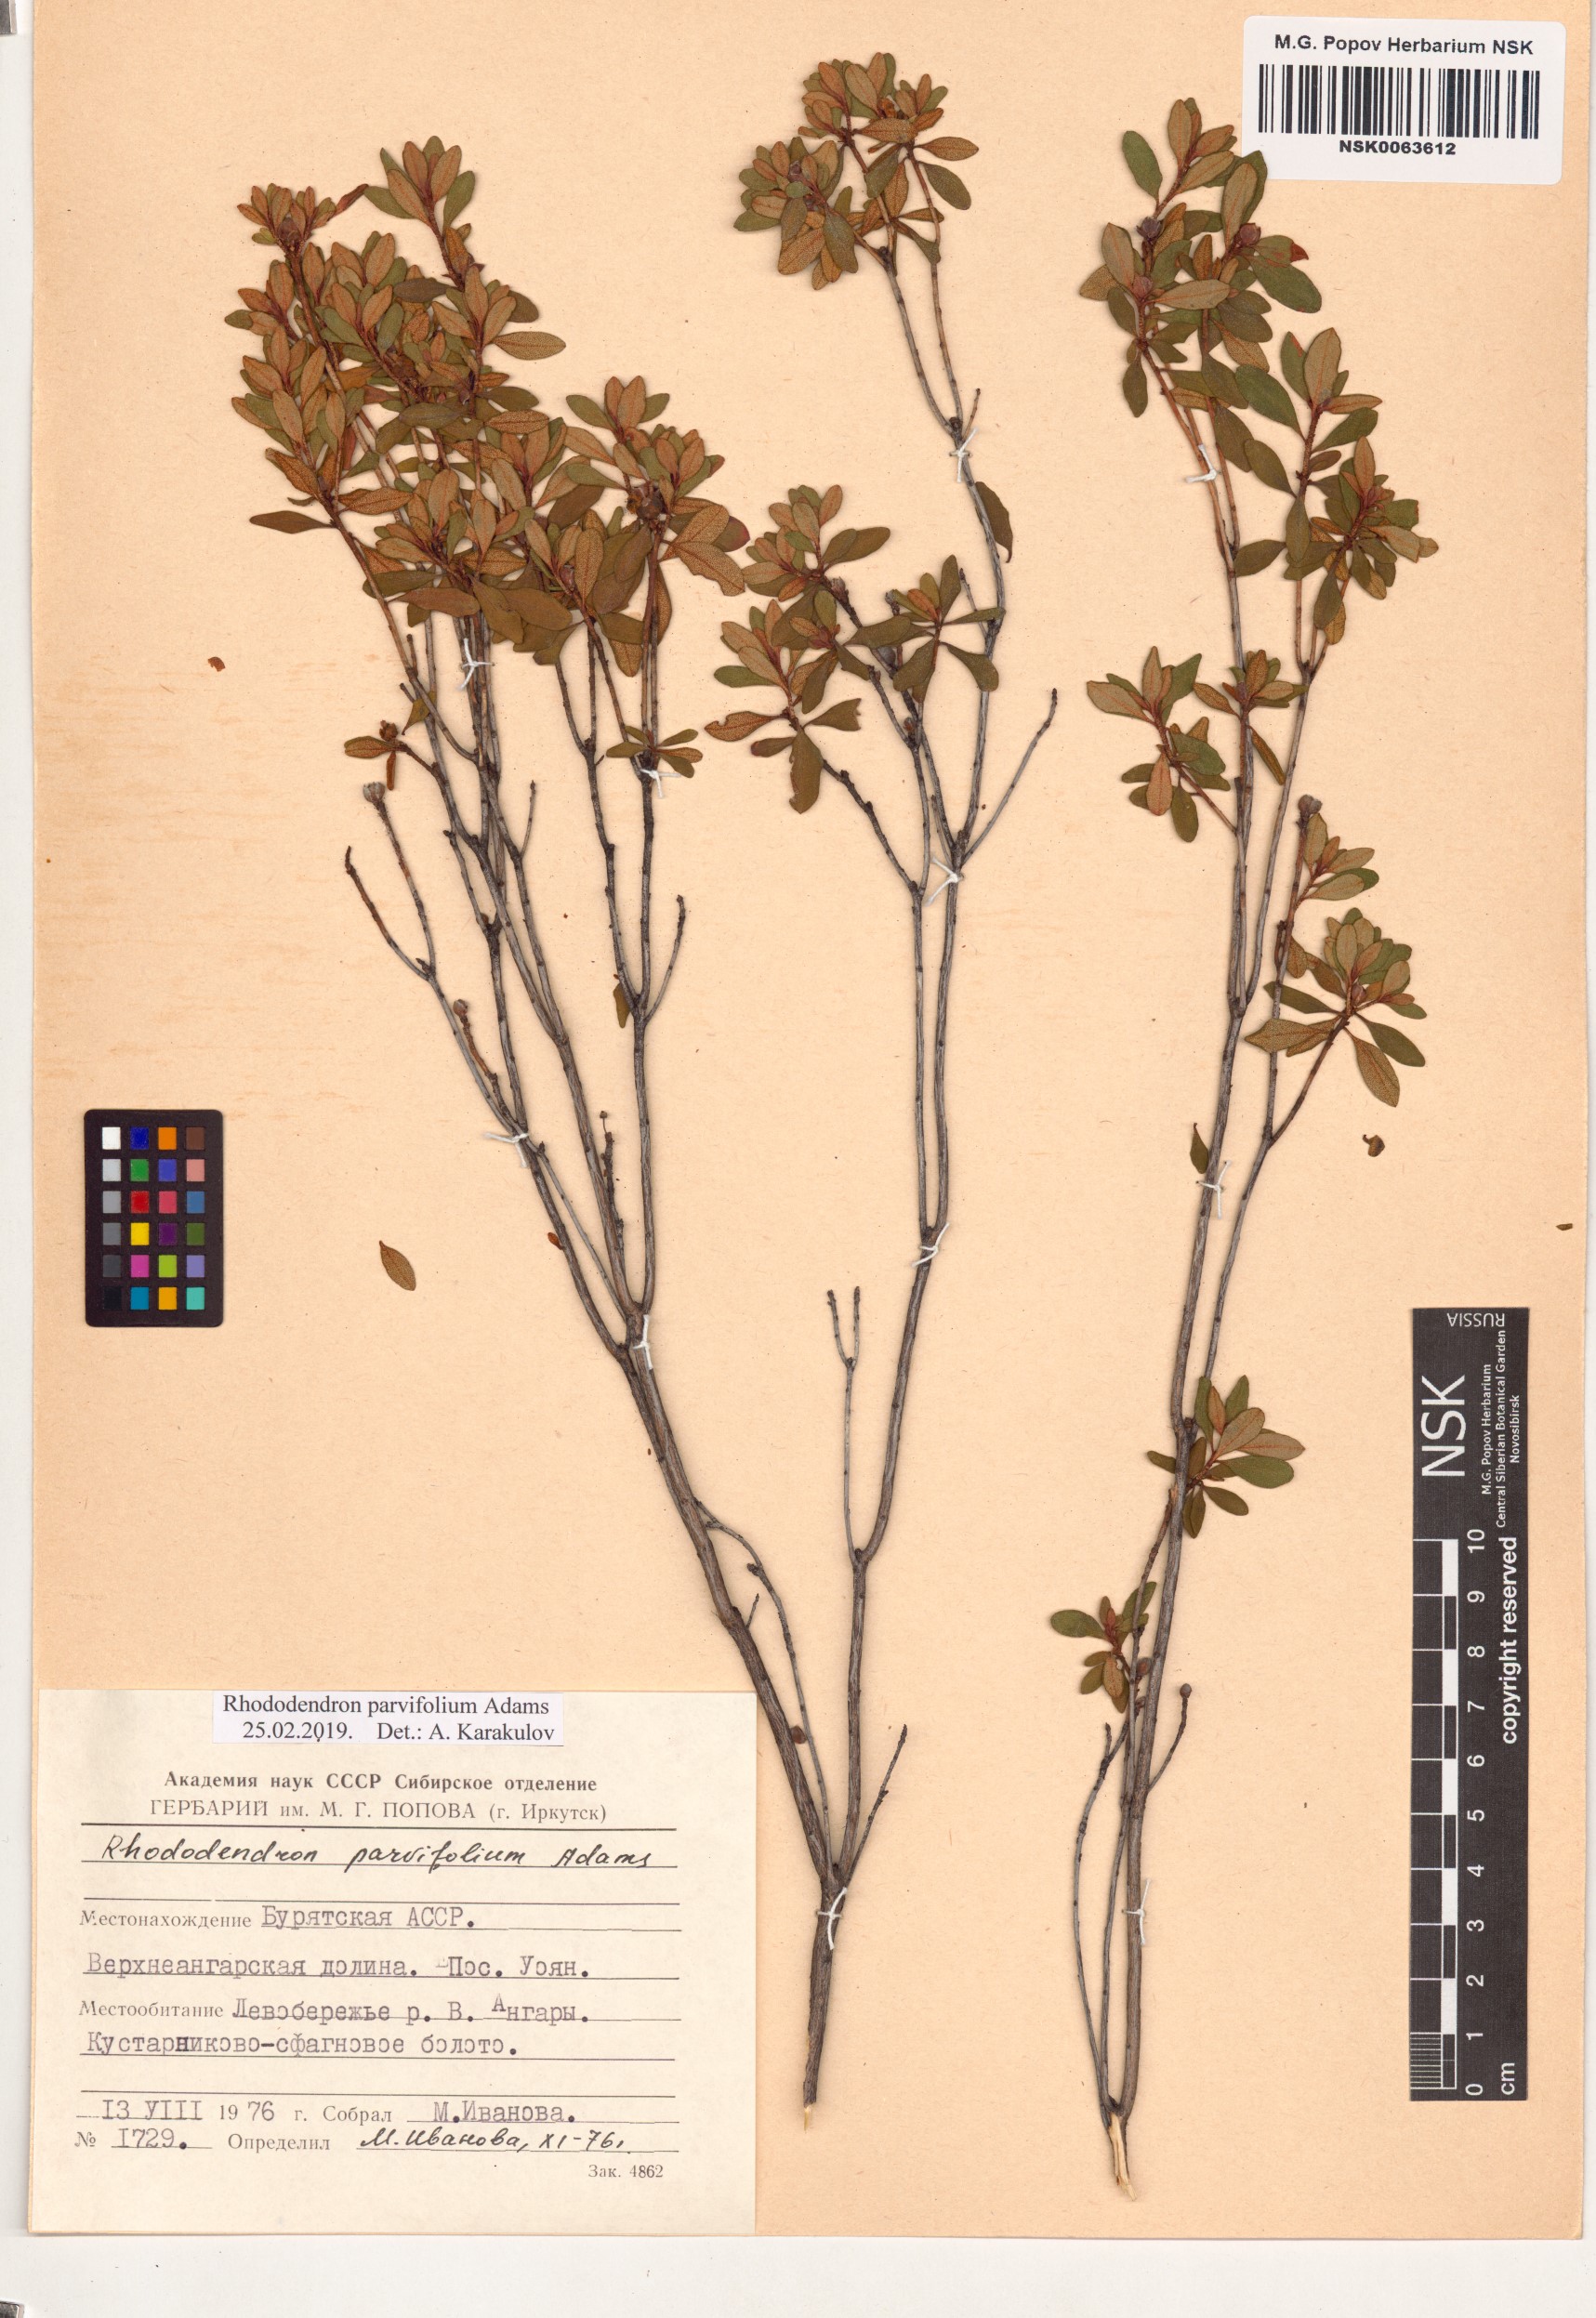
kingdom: Plantae
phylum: Tracheophyta
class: Magnoliopsida
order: Ericales
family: Ericaceae
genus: Rhododendron
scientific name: Rhododendron parvifolium
